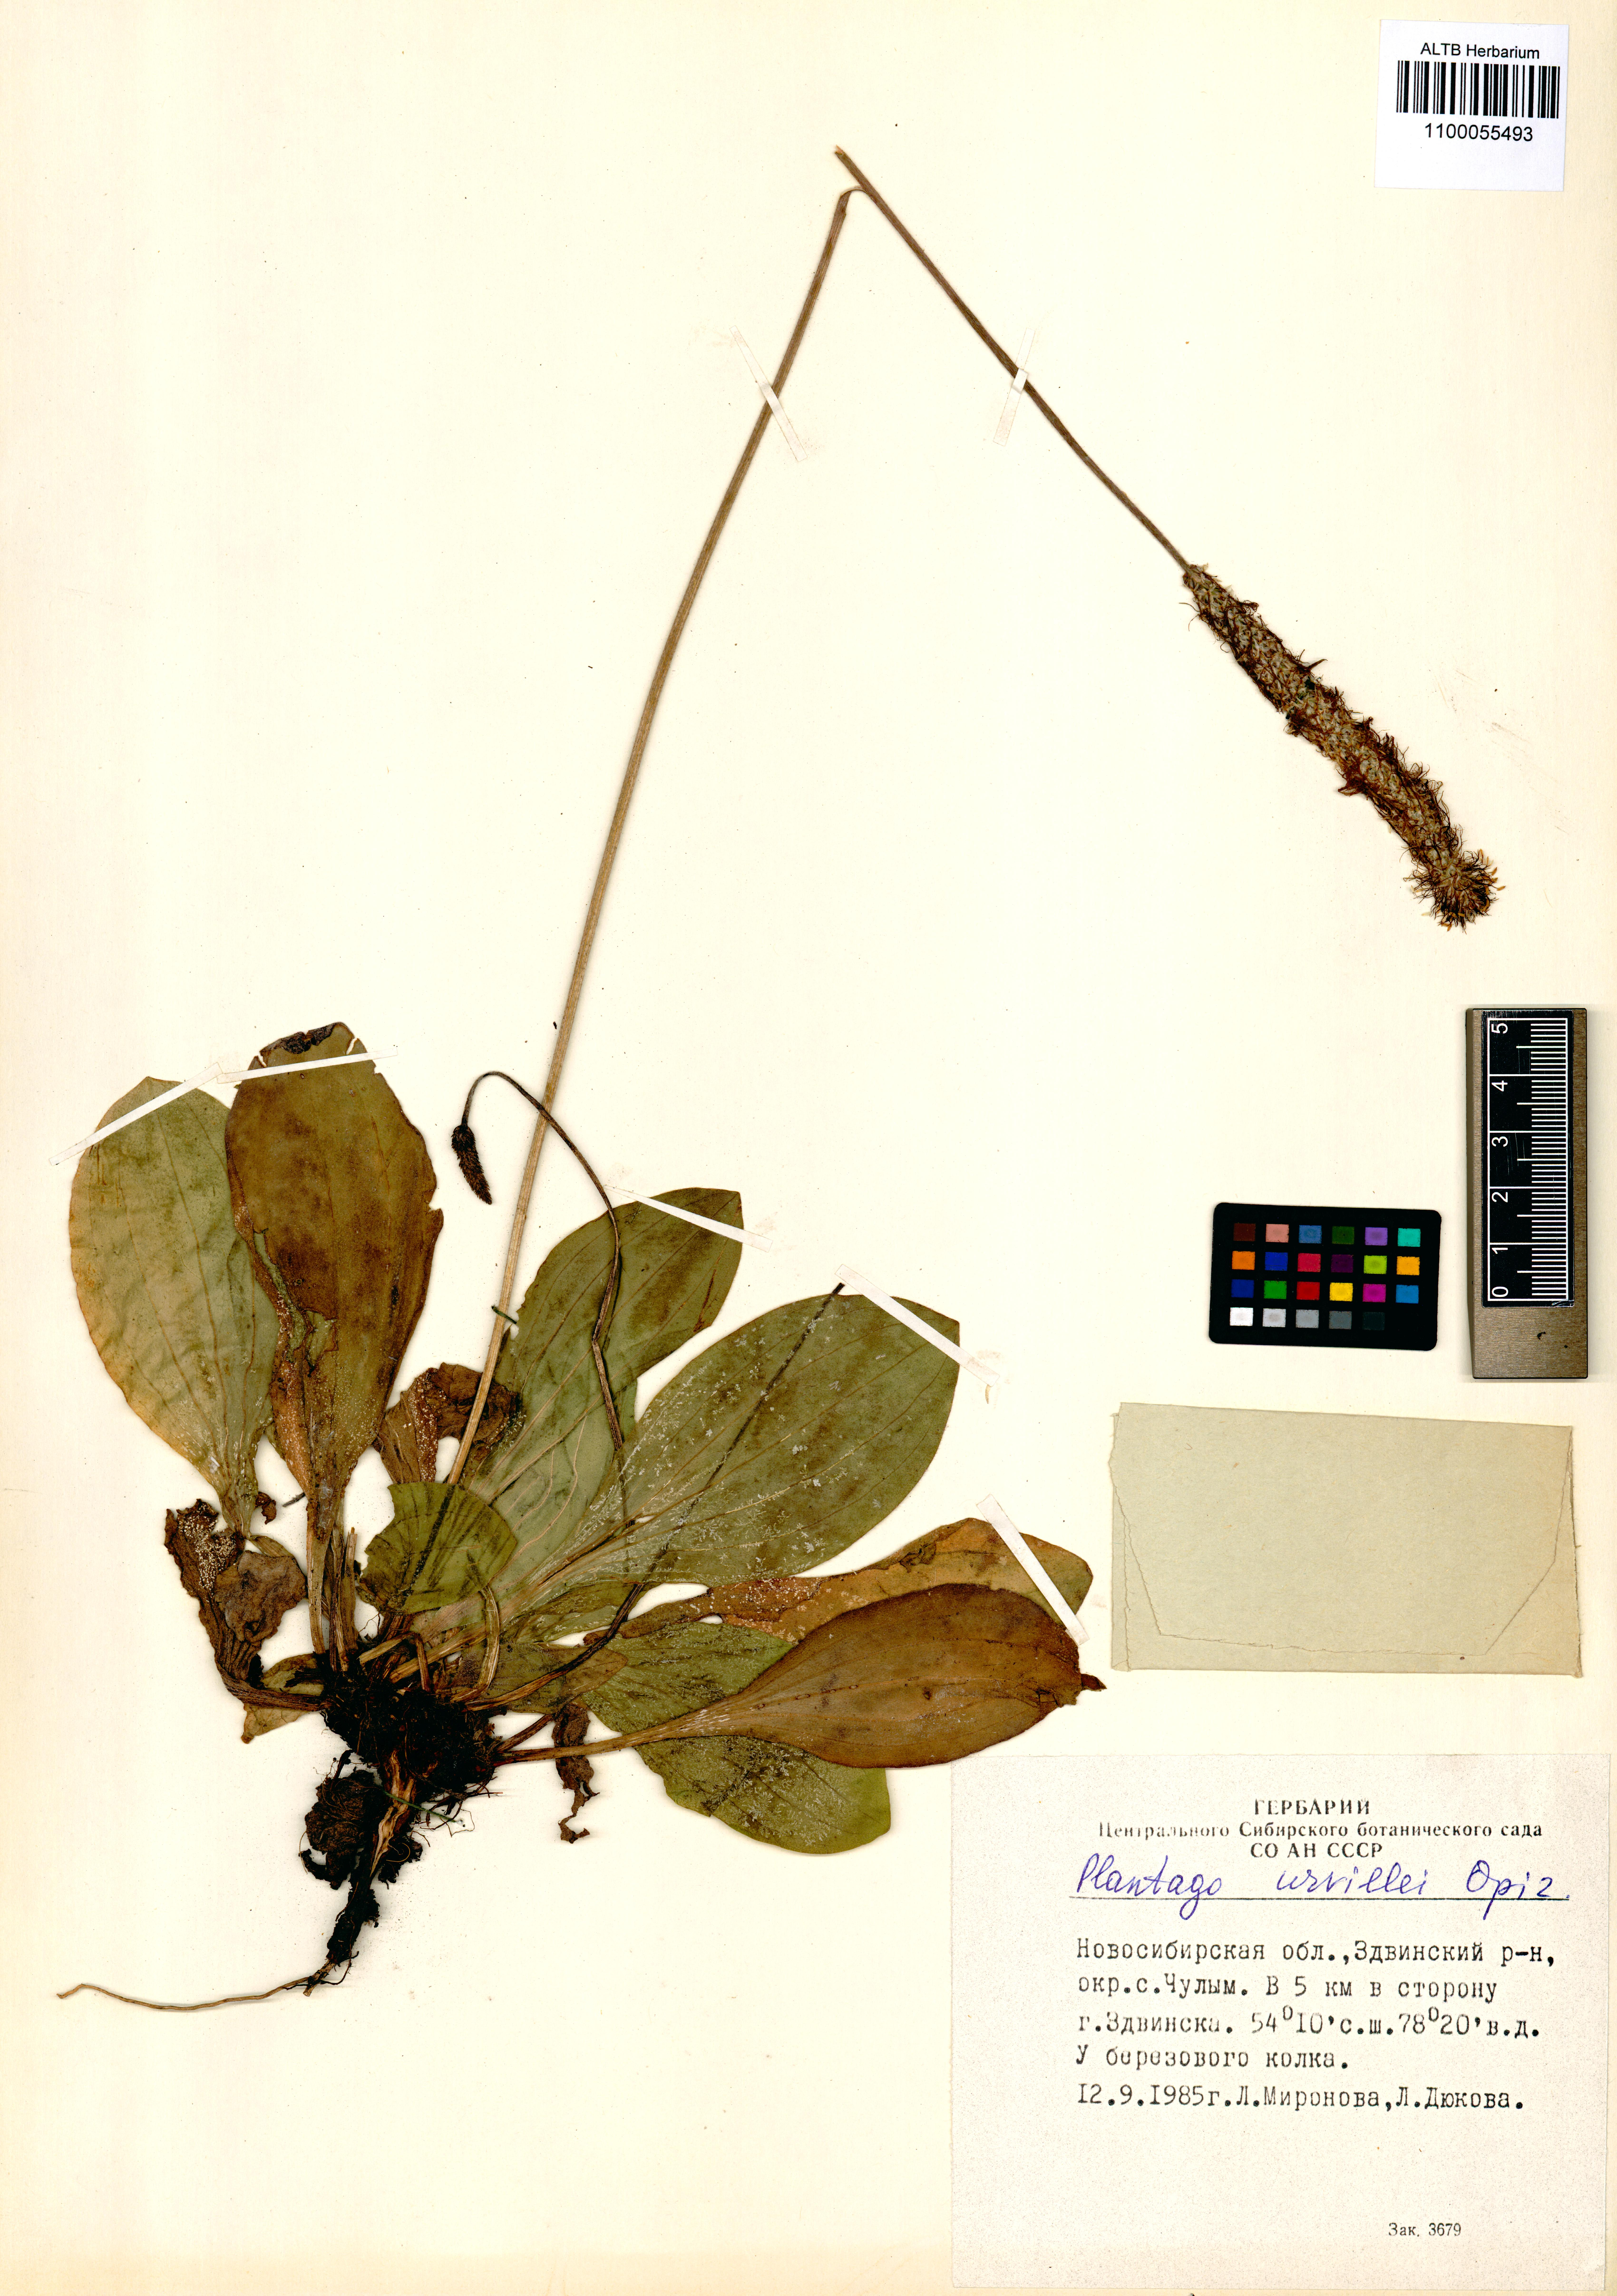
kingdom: Plantae
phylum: Tracheophyta
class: Magnoliopsida
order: Lamiales
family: Plantaginaceae
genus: Plantago
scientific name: Plantago urvillei
